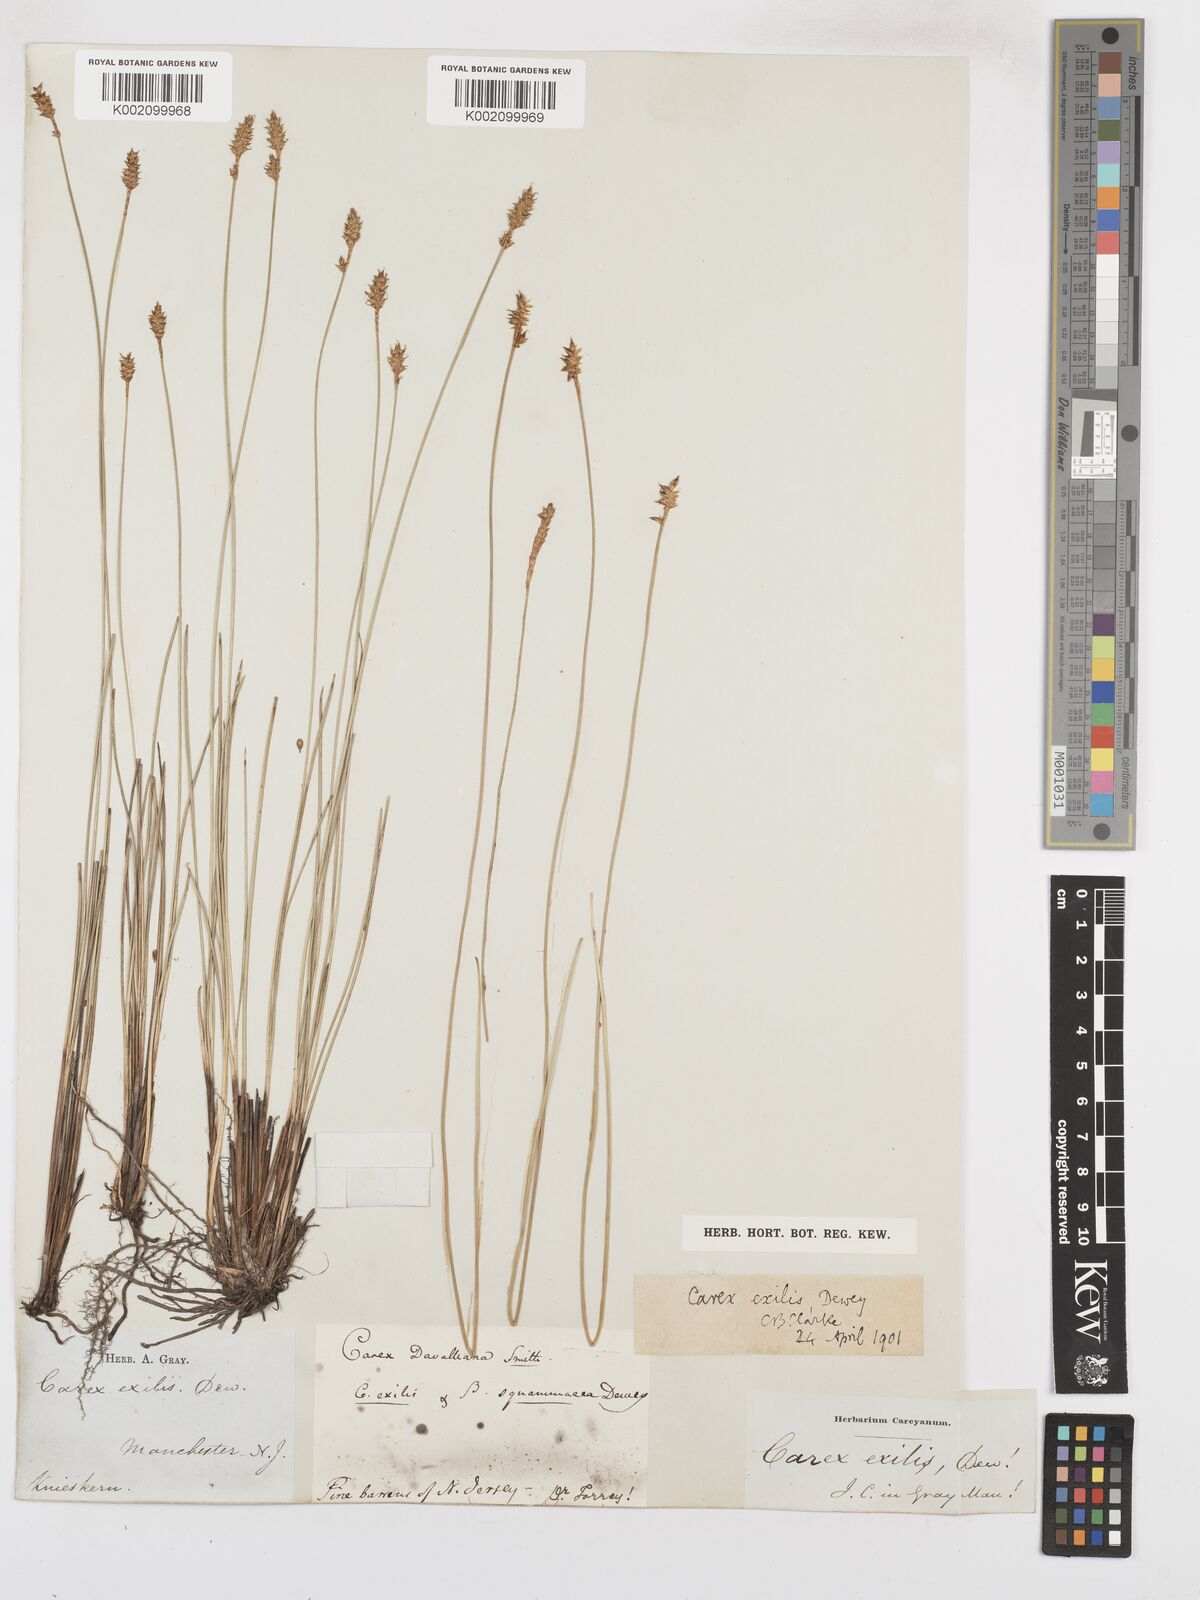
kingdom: Plantae
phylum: Tracheophyta
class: Liliopsida
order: Poales
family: Cyperaceae
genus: Carex
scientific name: Carex exilis
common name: Coastal sedge
